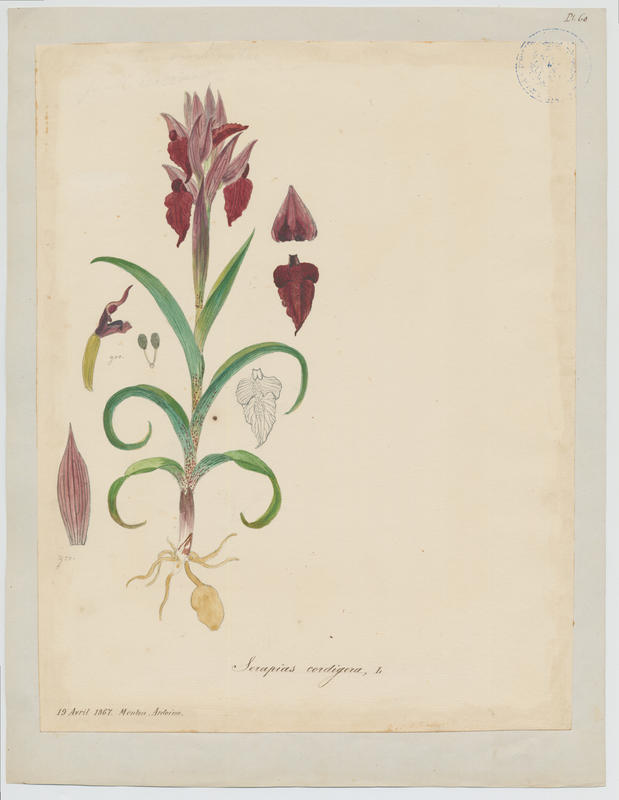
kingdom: Plantae
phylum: Tracheophyta
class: Liliopsida
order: Asparagales
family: Orchidaceae
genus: Serapias
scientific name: Serapias cordigera
